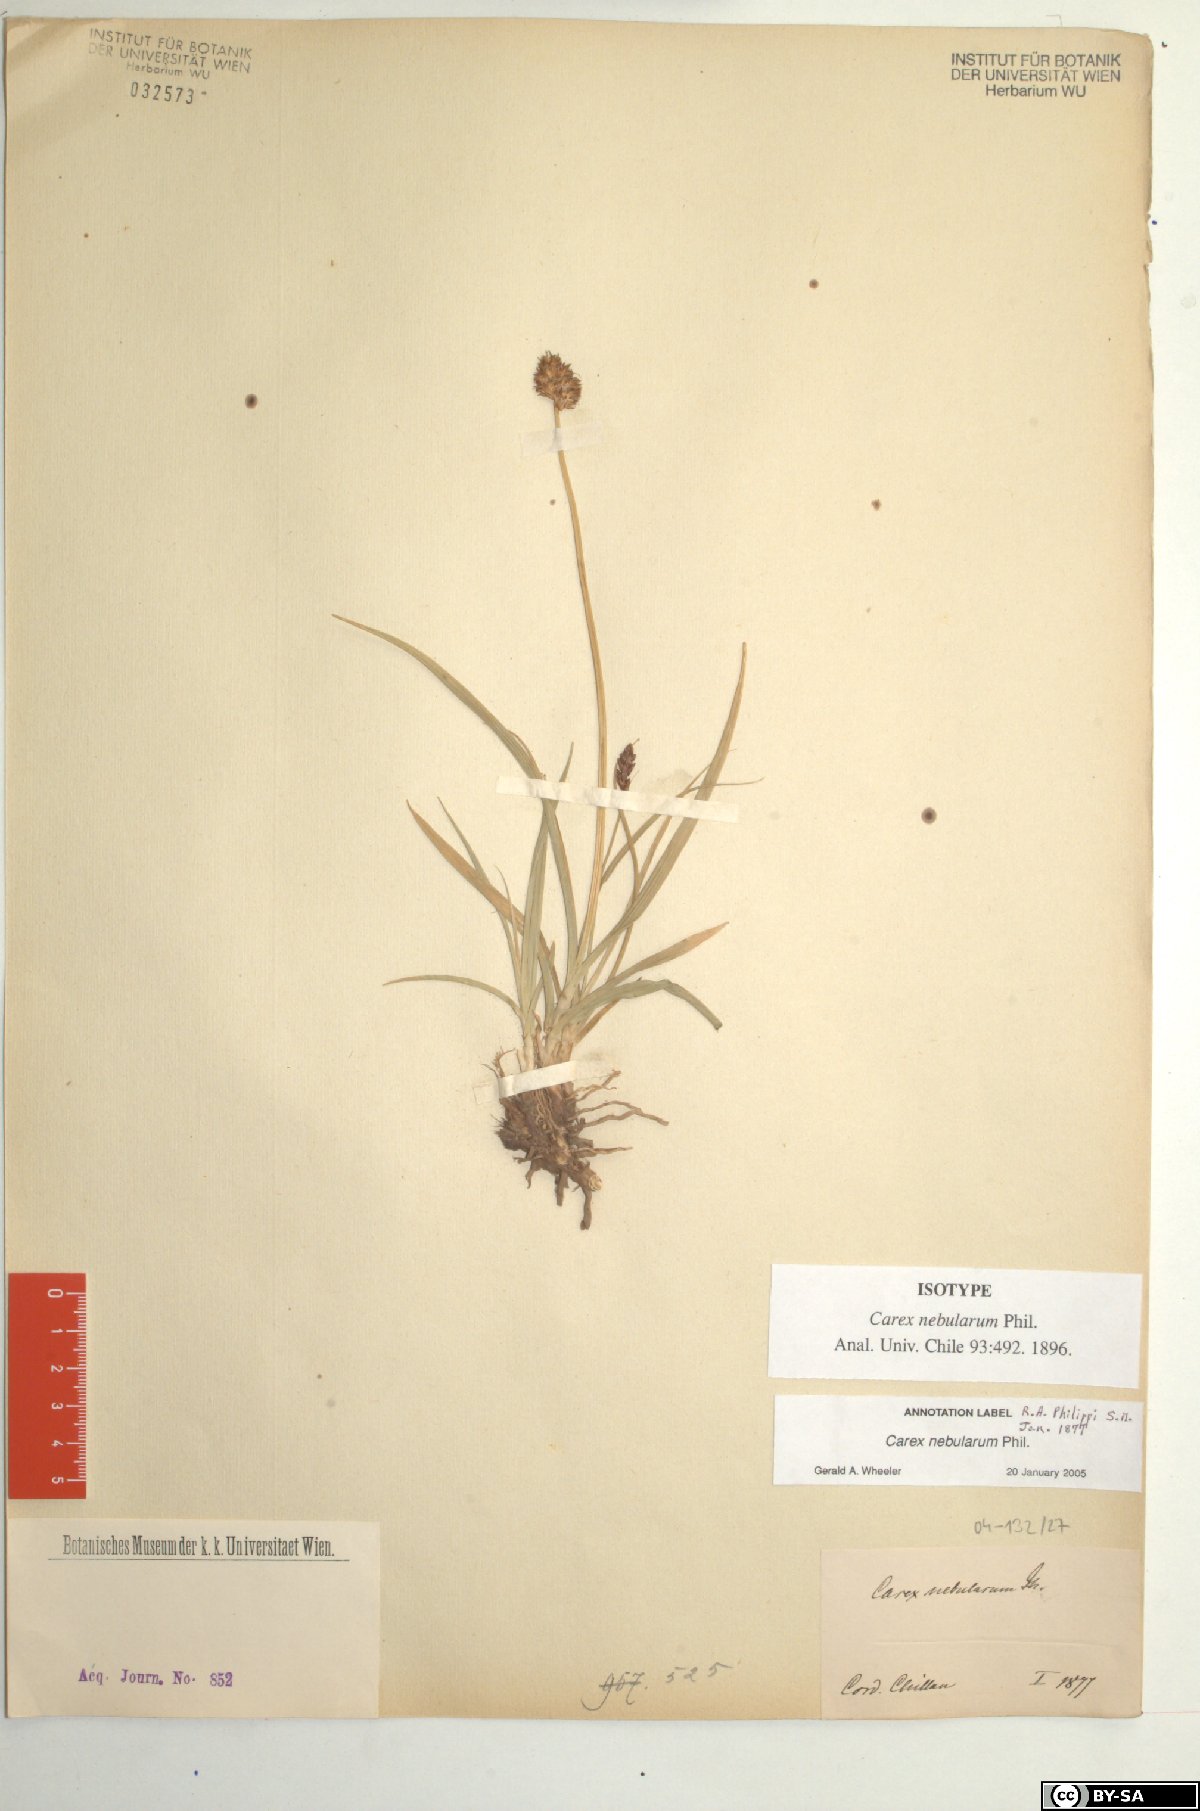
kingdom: Plantae
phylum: Tracheophyta
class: Liliopsida
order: Poales
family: Cyperaceae
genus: Carex
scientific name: Carex nebularum
